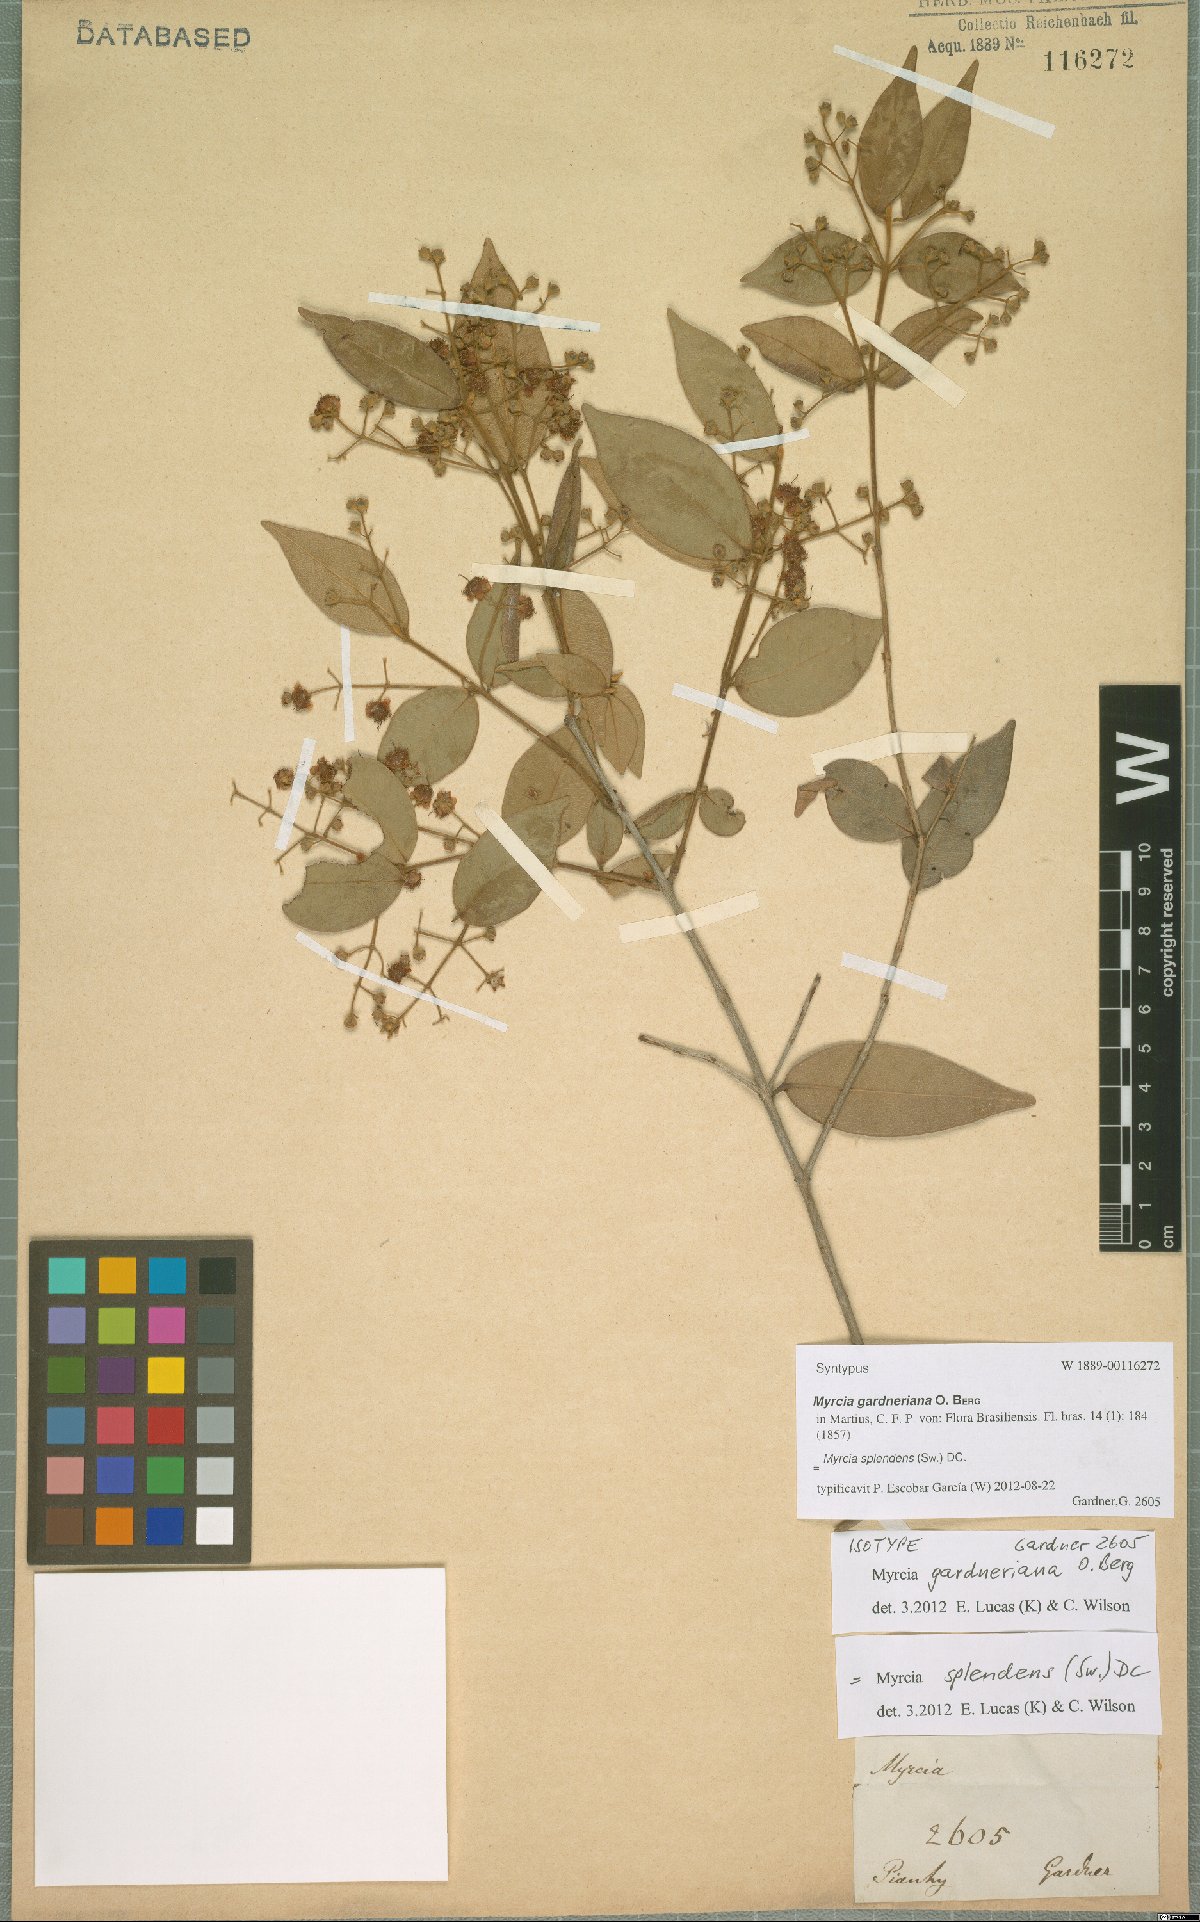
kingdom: Plantae
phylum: Tracheophyta
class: Magnoliopsida
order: Myrtales
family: Myrtaceae
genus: Myrcia
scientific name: Myrcia splendens
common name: Surinam cherry
